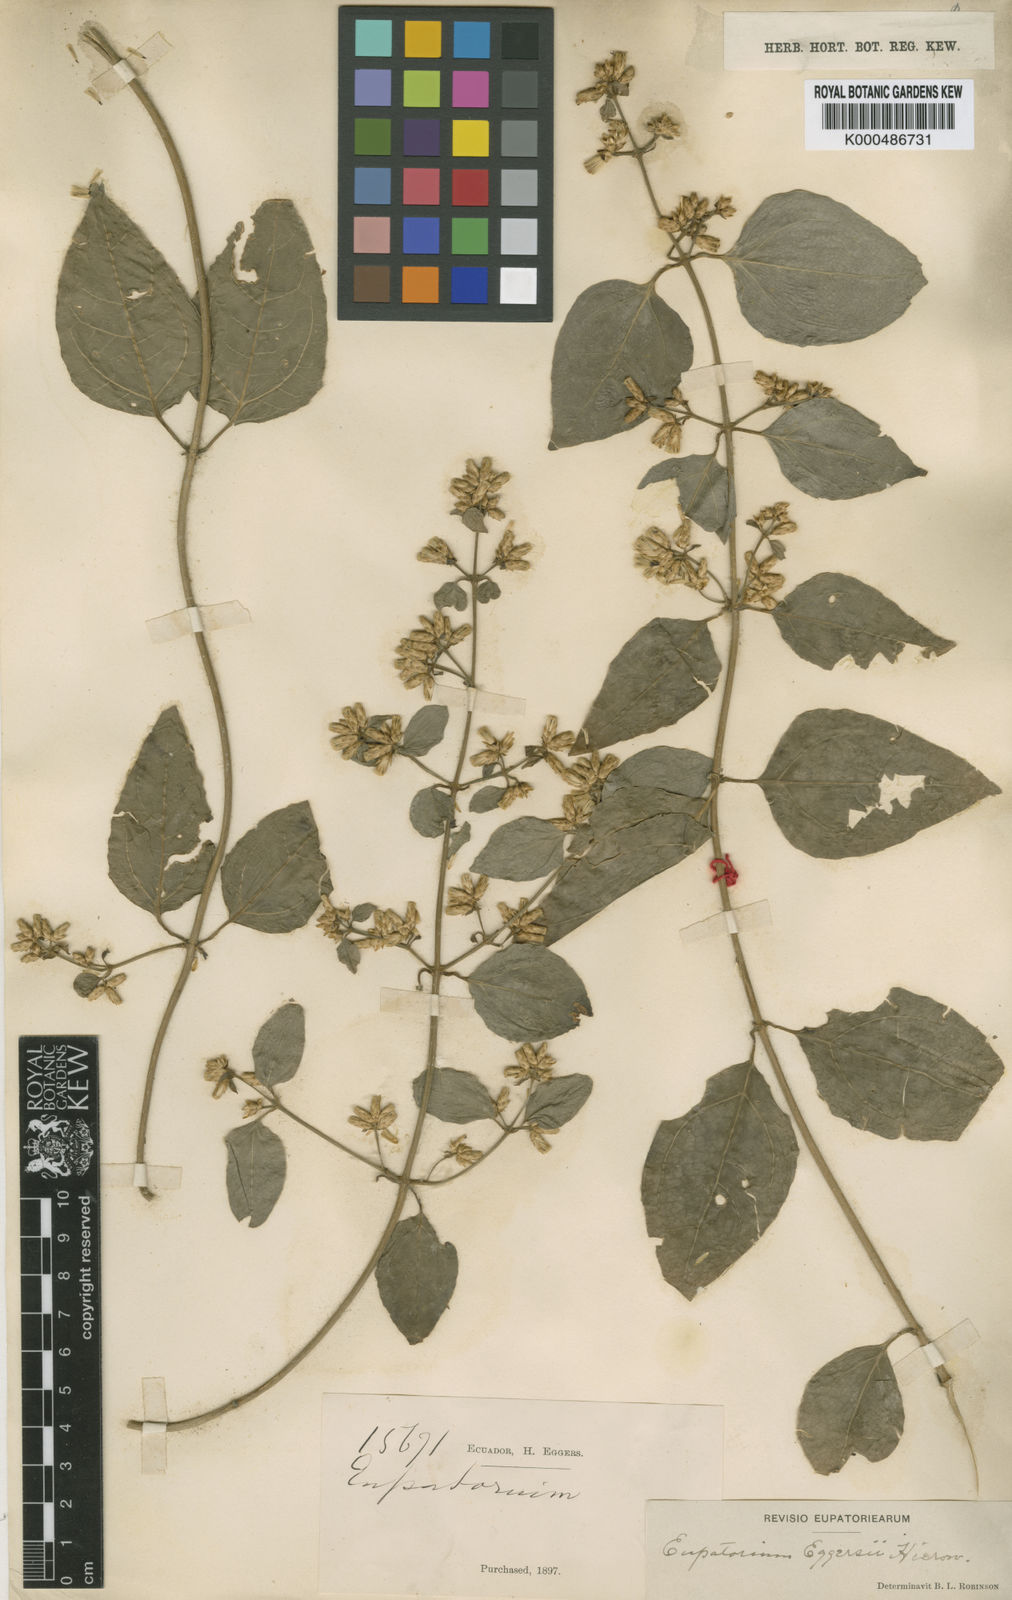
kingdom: Plantae
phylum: Tracheophyta
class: Magnoliopsida
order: Asterales
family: Asteraceae
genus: Critonia
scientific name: Critonia billbergiana
